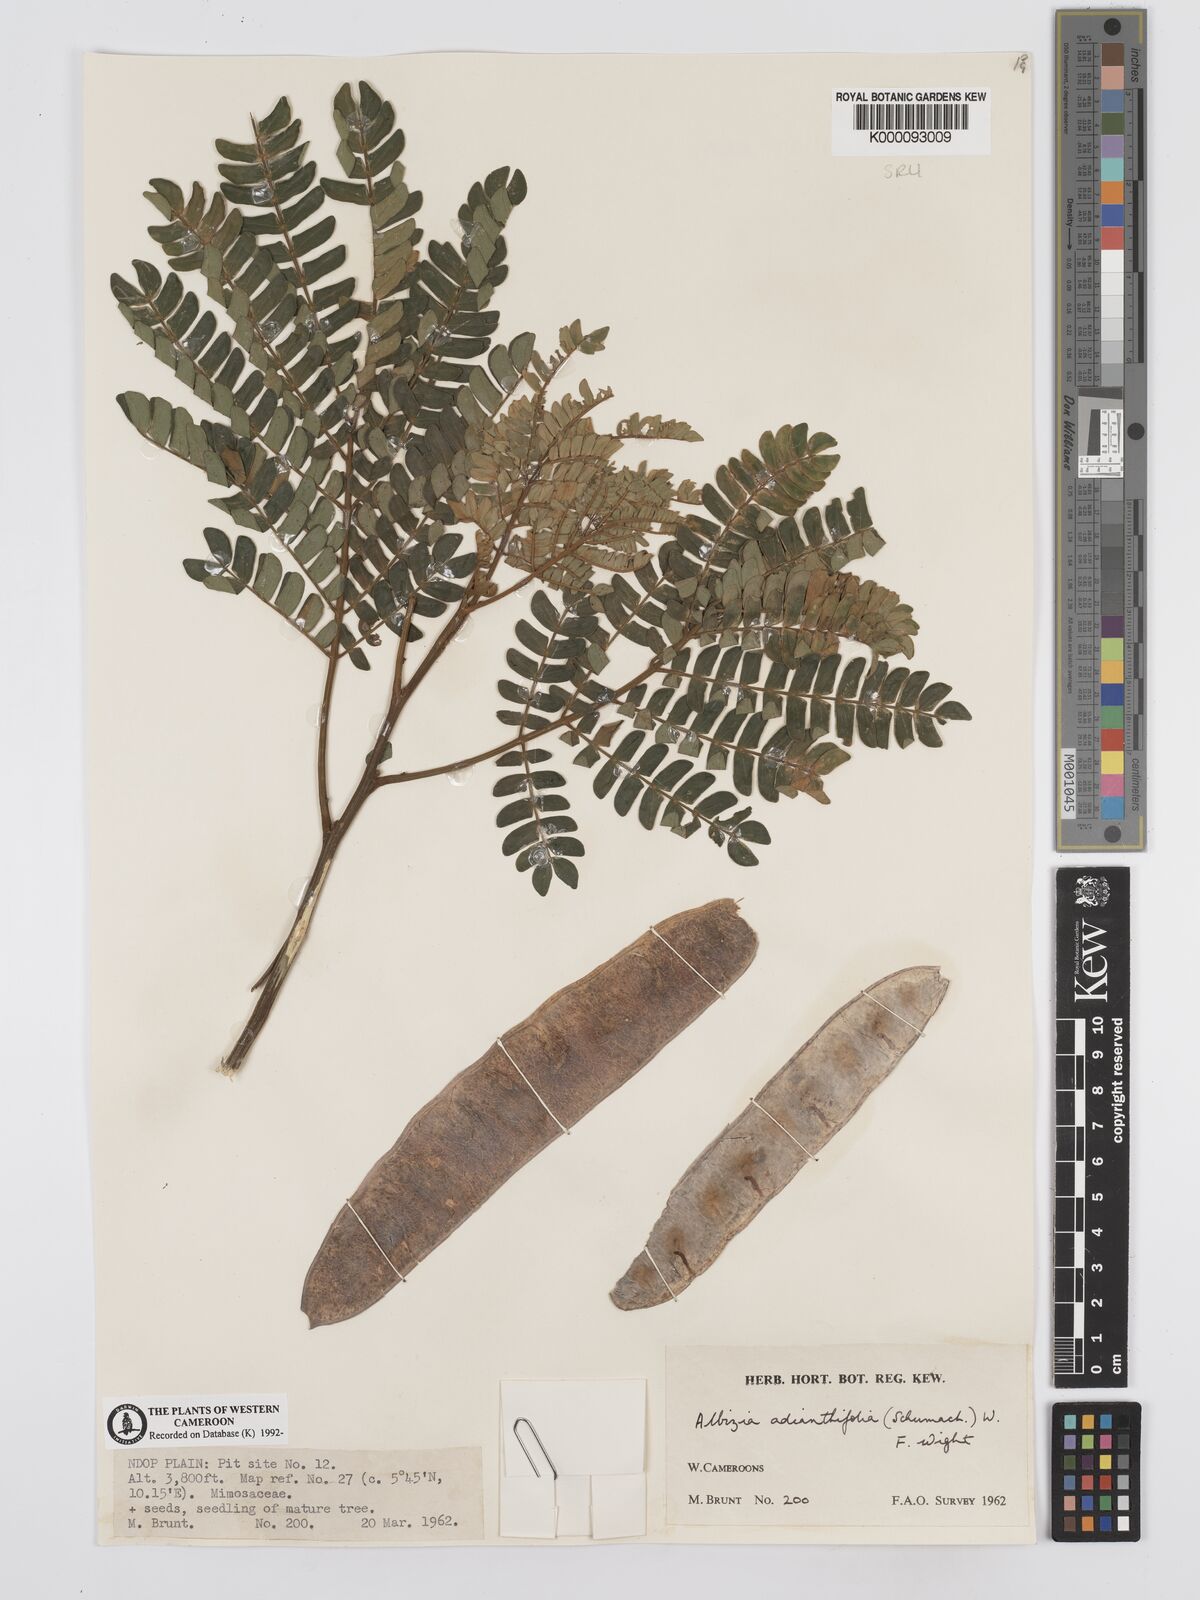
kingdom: Plantae
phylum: Tracheophyta
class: Magnoliopsida
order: Fabales
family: Fabaceae
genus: Albizia
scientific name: Albizia adianthifolia
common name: West african albizia
